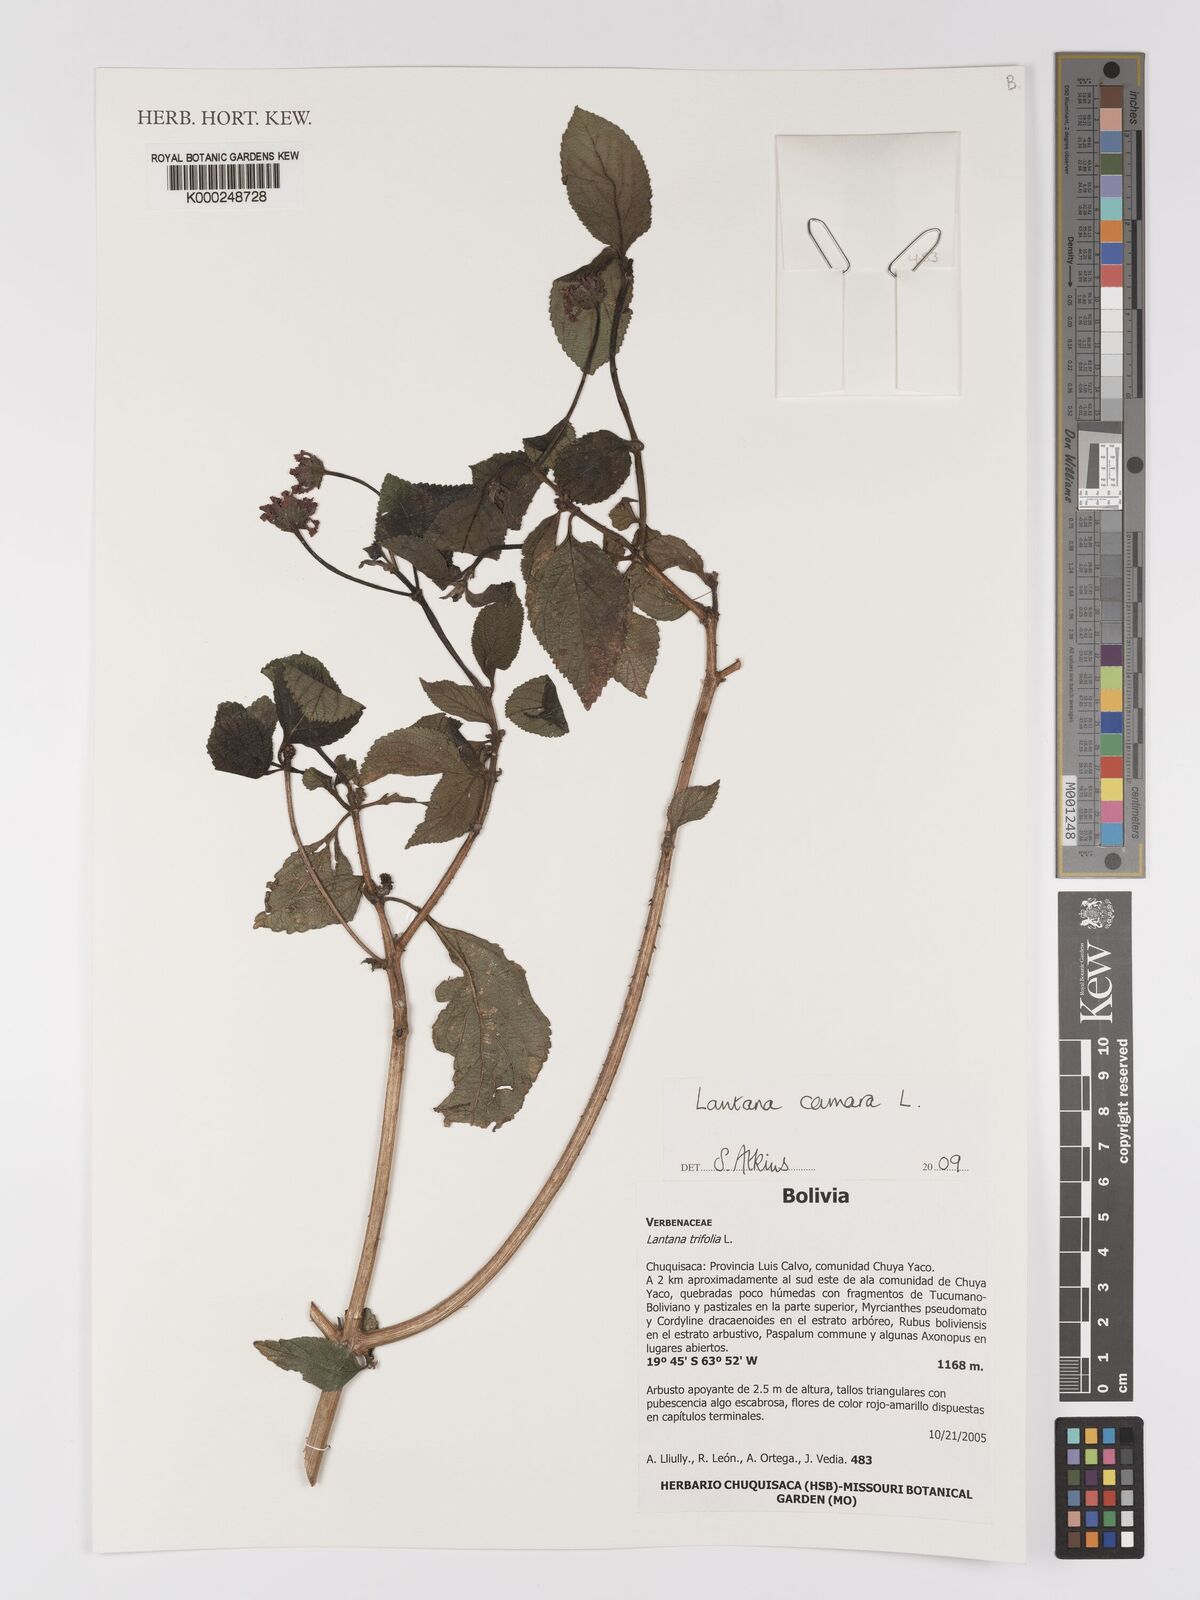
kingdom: Plantae
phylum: Tracheophyta
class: Magnoliopsida
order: Lamiales
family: Verbenaceae
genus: Lantana
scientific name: Lantana camara
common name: Lantana
